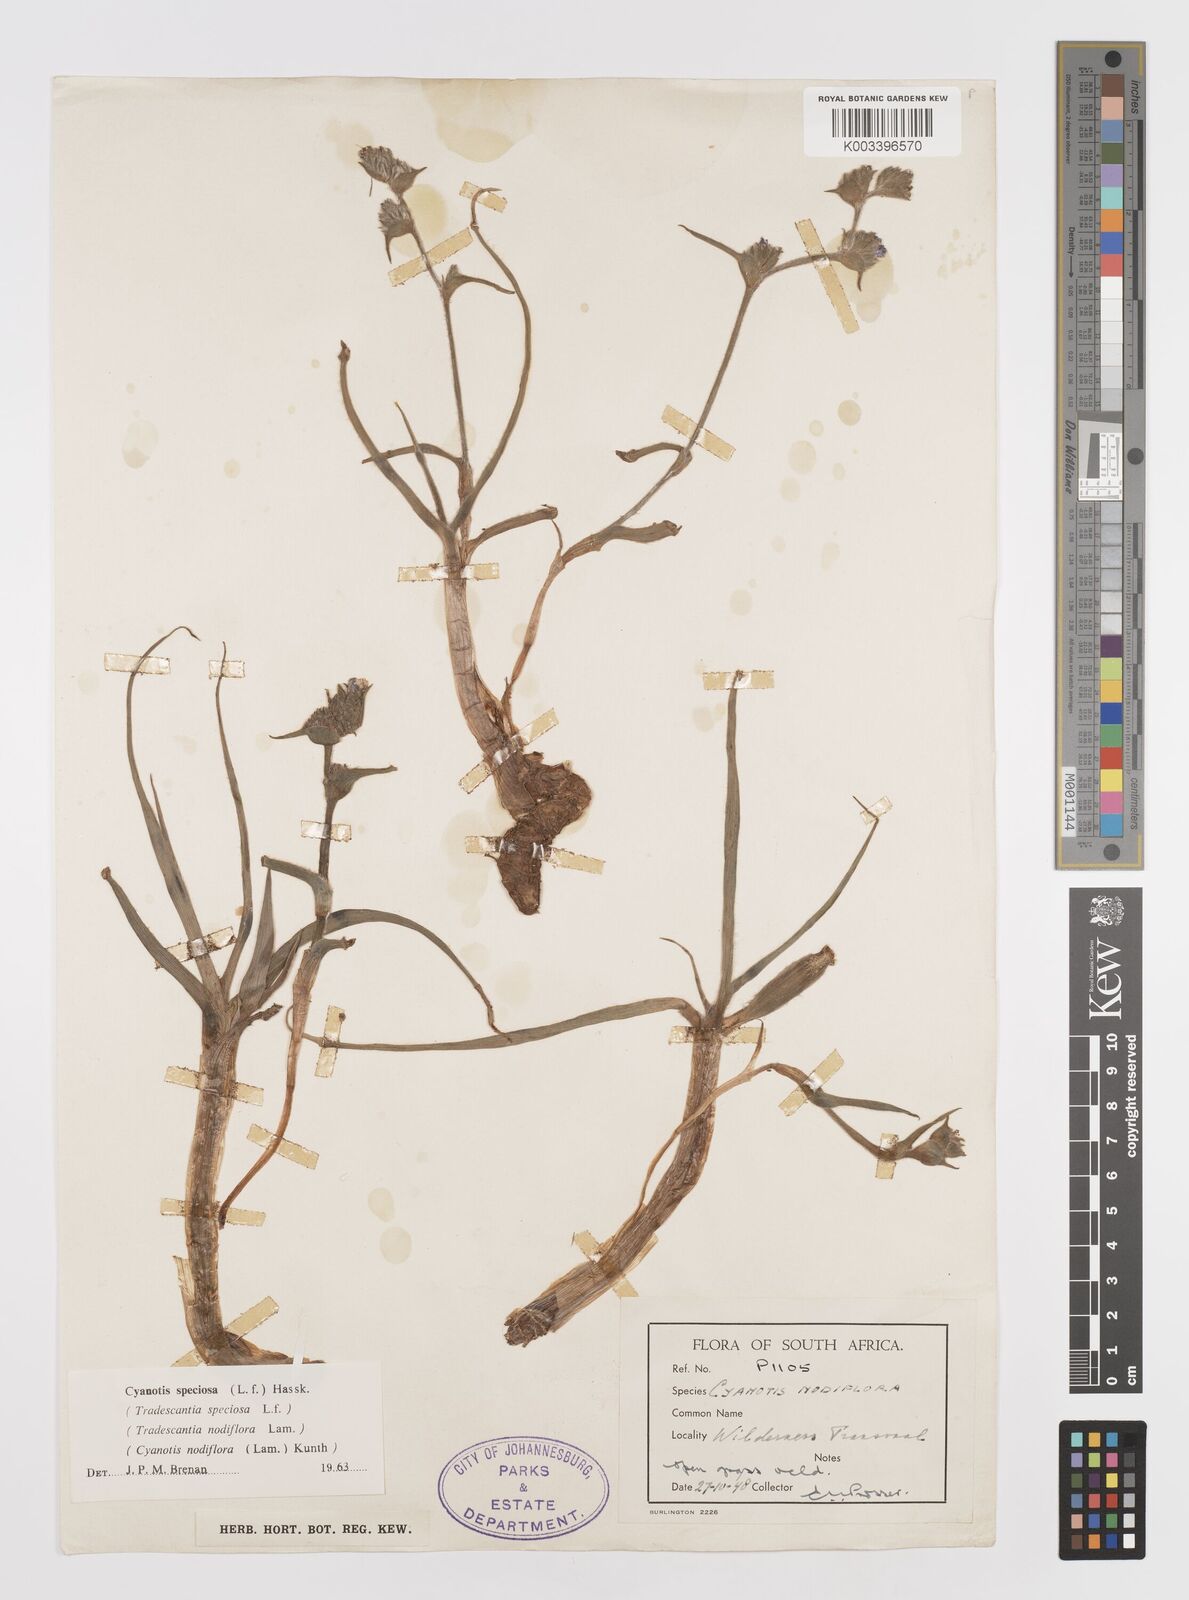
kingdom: Plantae
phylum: Tracheophyta
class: Liliopsida
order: Commelinales
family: Commelinaceae
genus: Cyanotis
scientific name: Cyanotis speciosa
